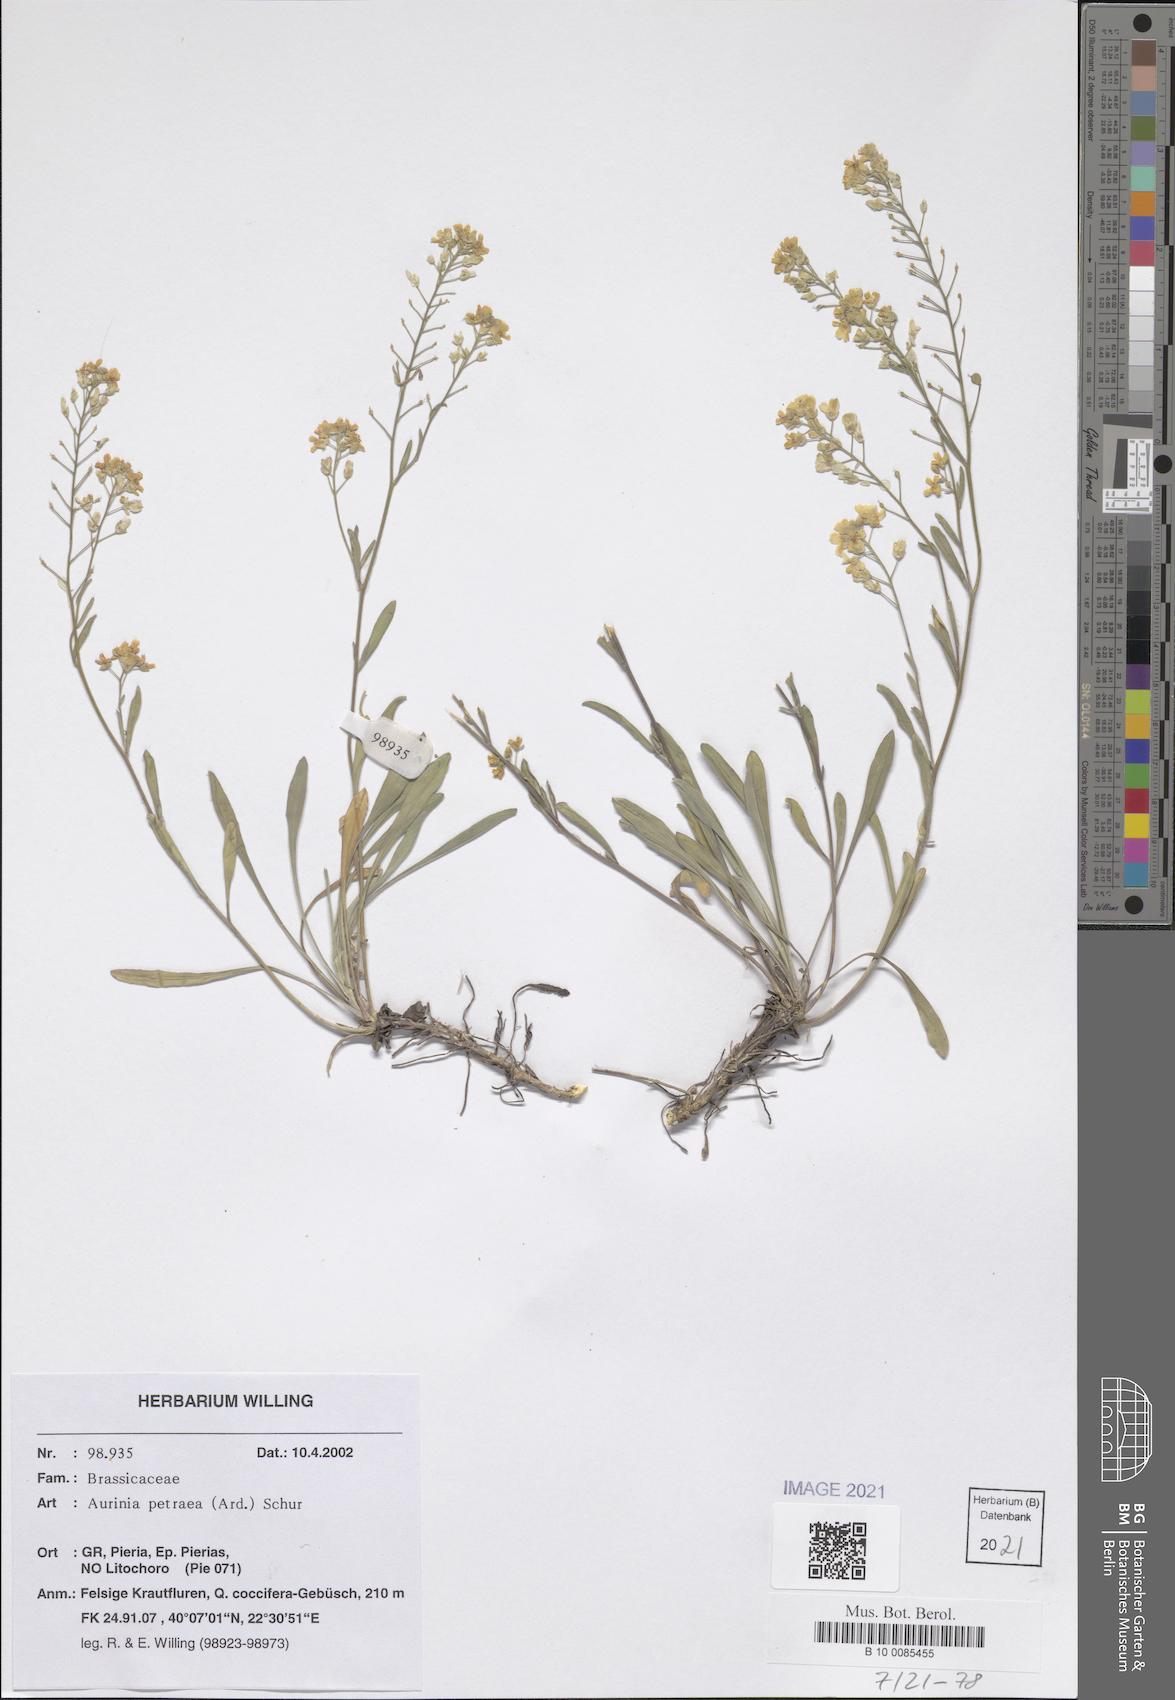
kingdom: Plantae
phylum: Tracheophyta
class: Magnoliopsida
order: Brassicales
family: Brassicaceae
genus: Aurinia
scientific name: Aurinia petraea
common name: Goldentuft
